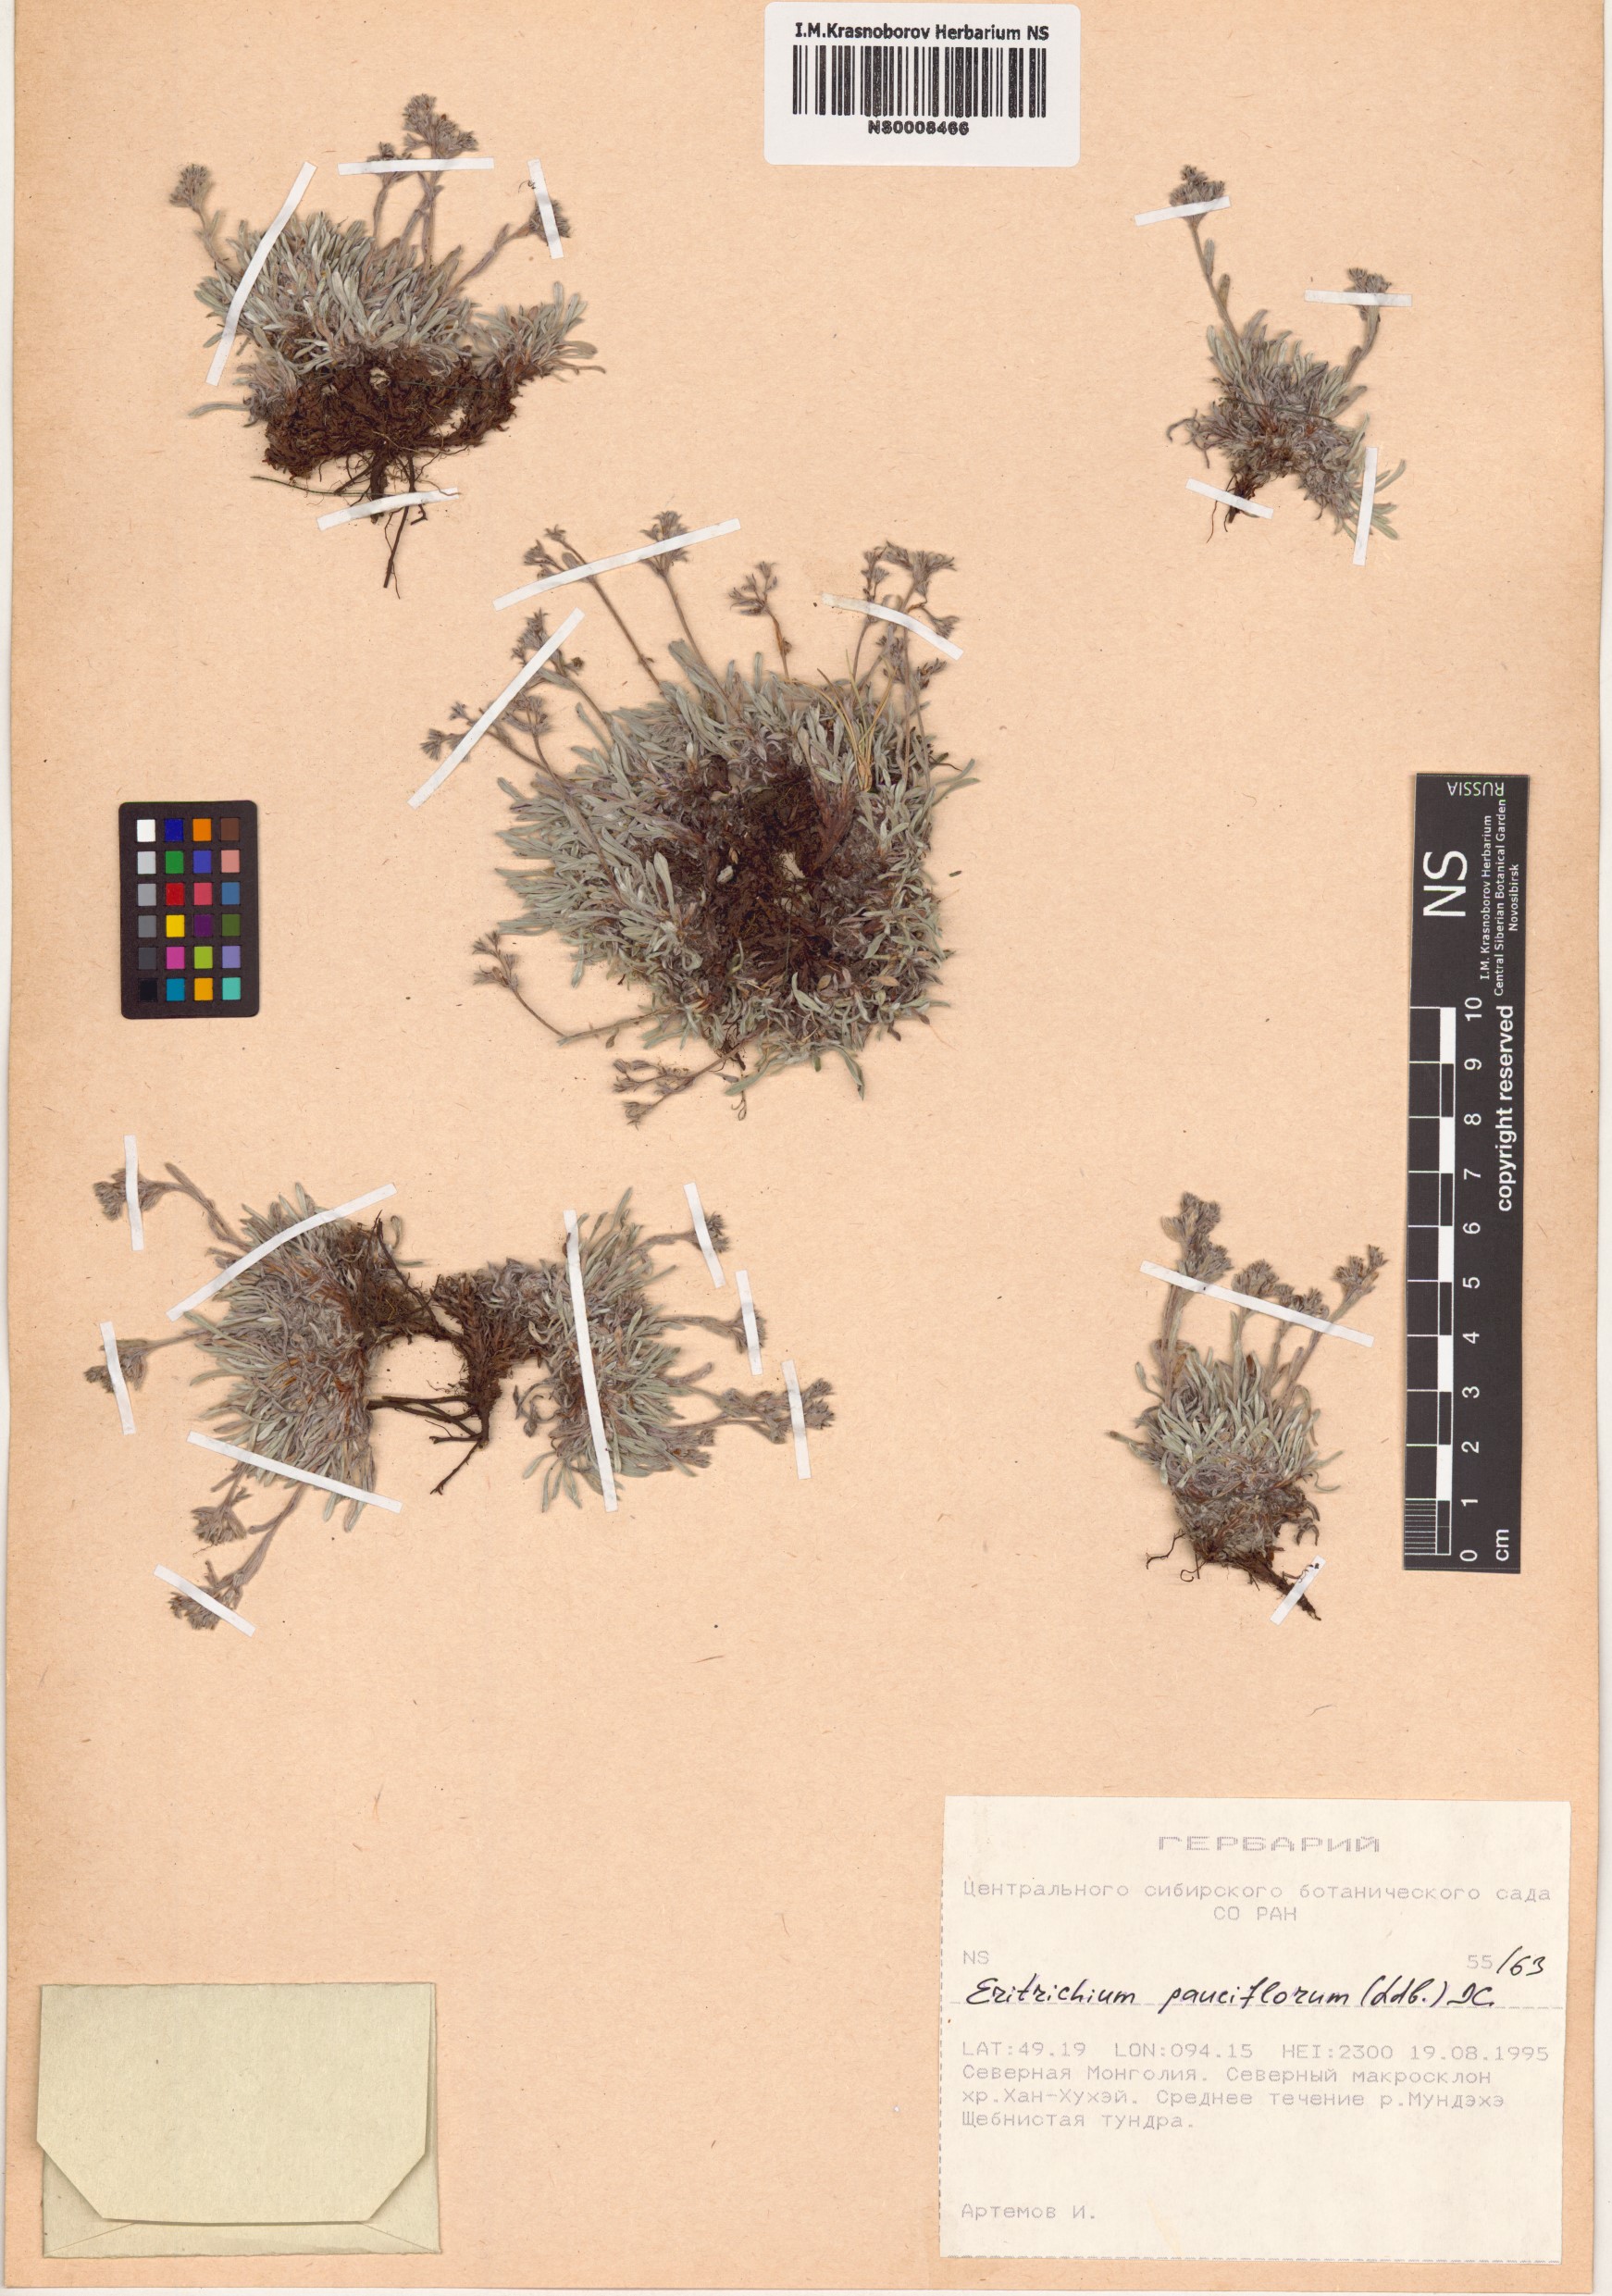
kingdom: Plantae
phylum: Tracheophyta
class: Magnoliopsida
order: Boraginales
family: Boraginaceae
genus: Eritrichium
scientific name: Eritrichium pauciflorum
